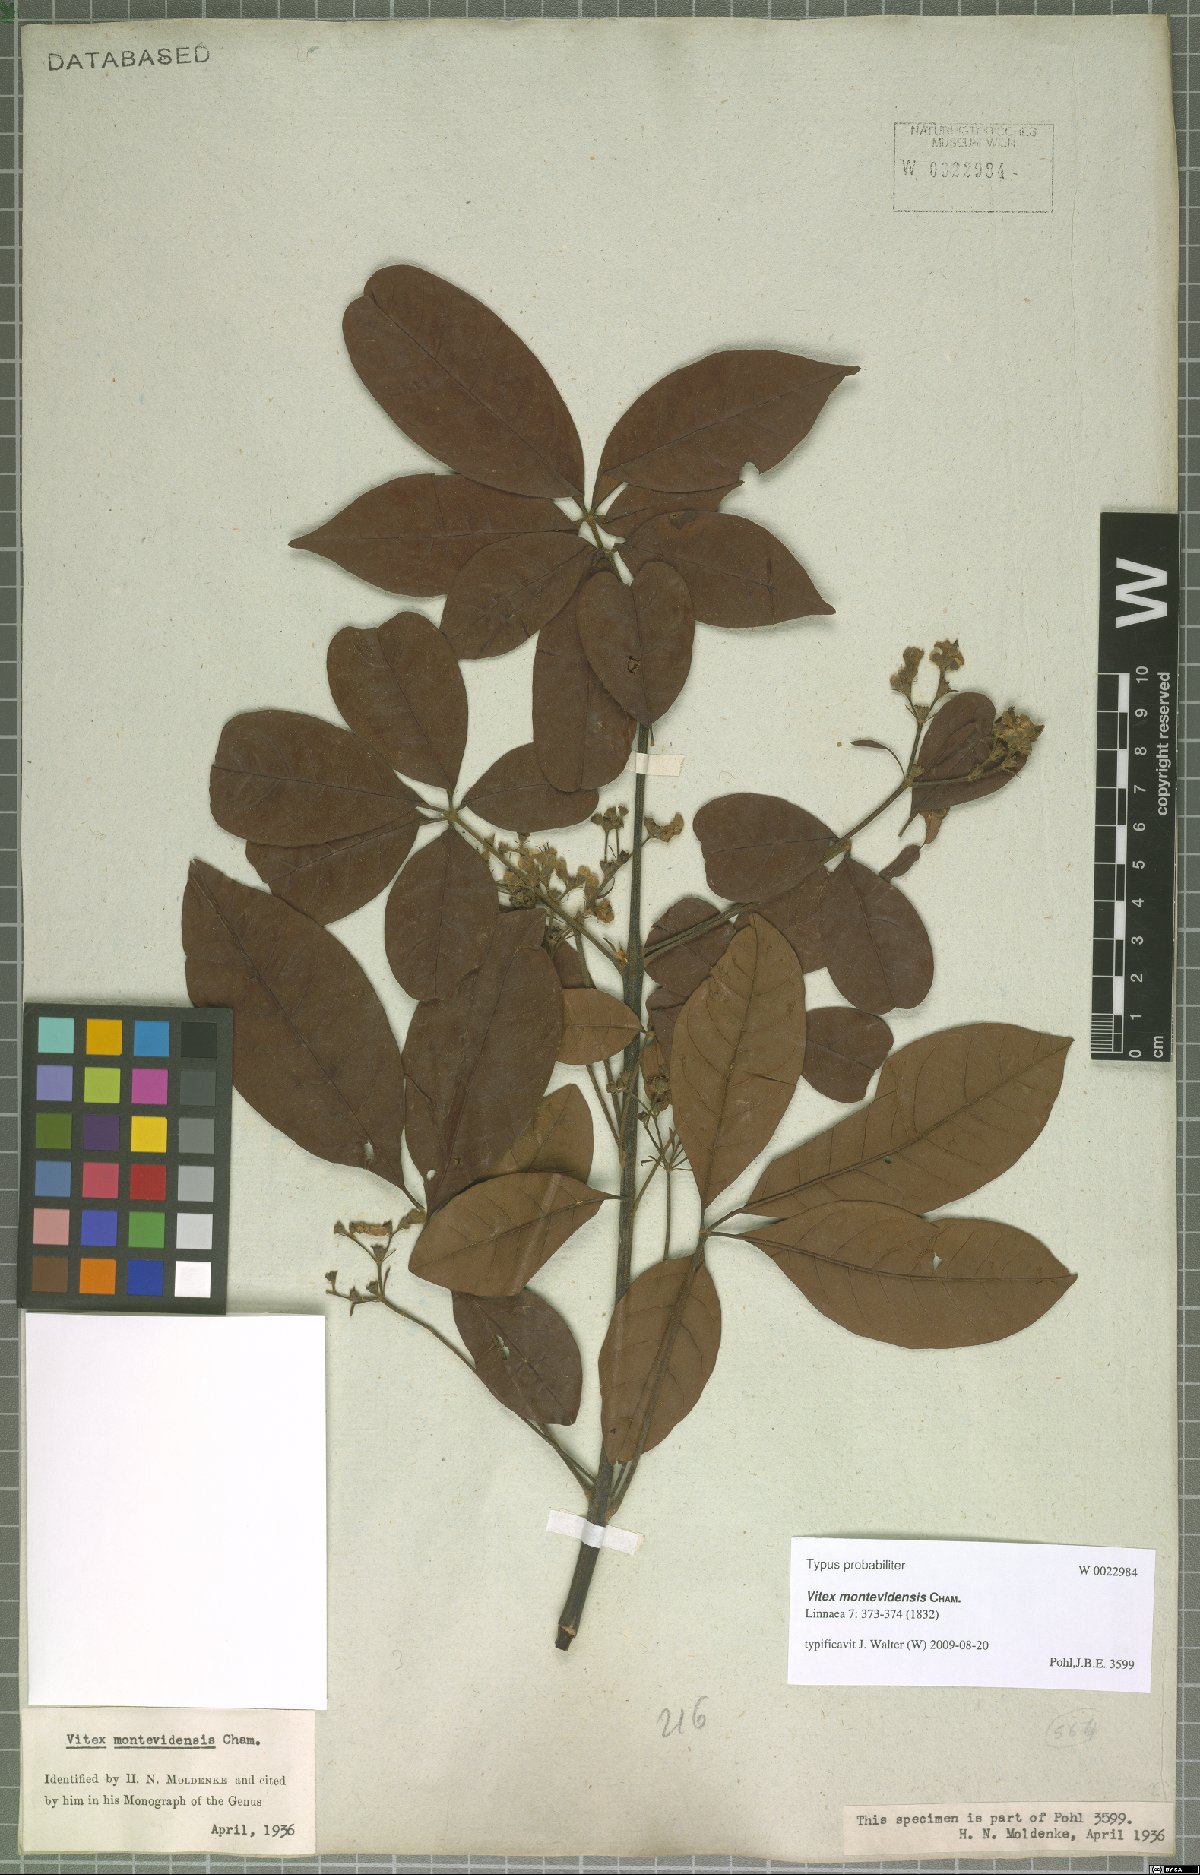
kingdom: Plantae
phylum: Tracheophyta
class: Magnoliopsida
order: Lamiales
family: Lamiaceae
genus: Vitex
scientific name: Vitex megapotamica
